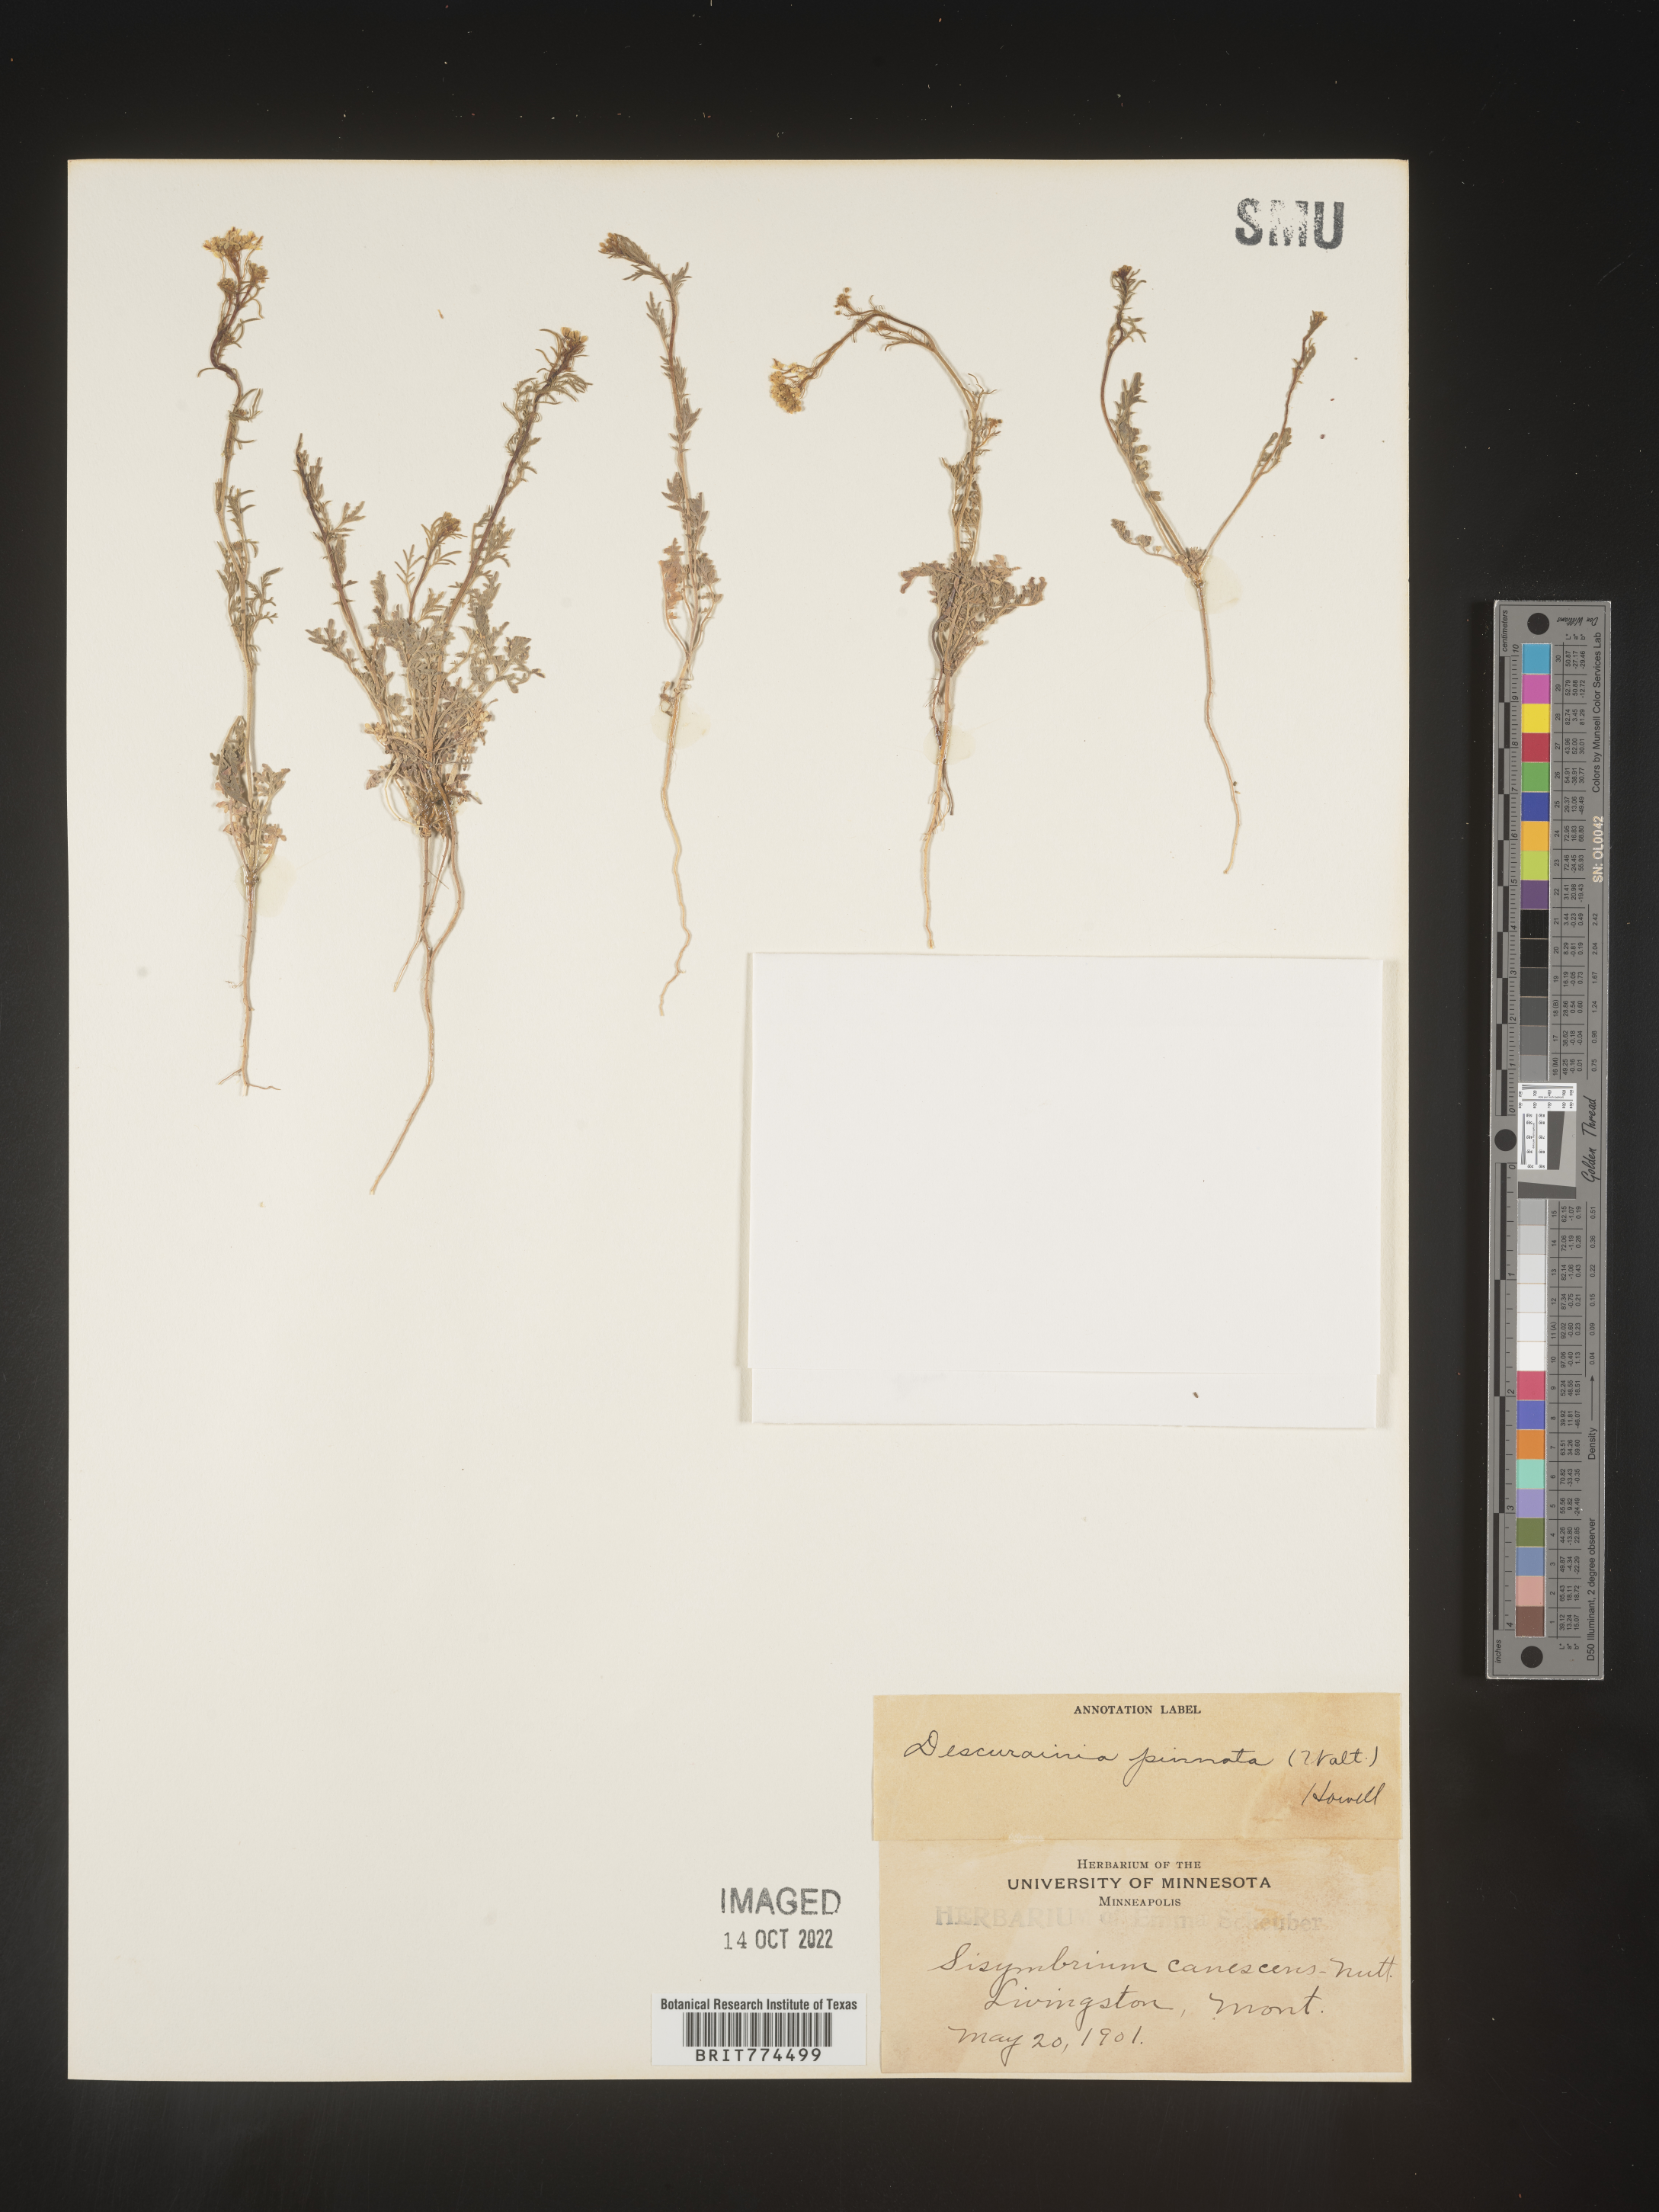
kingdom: Plantae
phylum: Tracheophyta
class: Magnoliopsida
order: Brassicales
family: Brassicaceae
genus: Descurainia
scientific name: Descurainia pinnata
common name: Western tansy mustard
